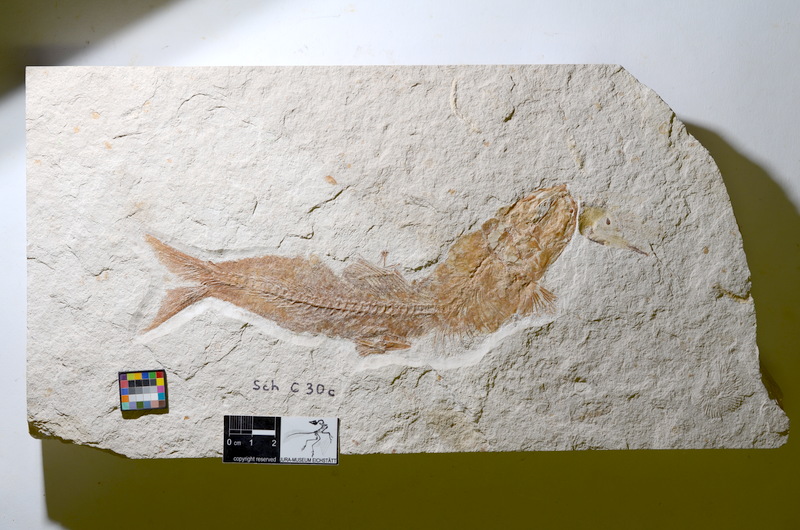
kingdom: Animalia
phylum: Chordata
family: Ascalaboidae
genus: Tharsis
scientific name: Tharsis dubius
